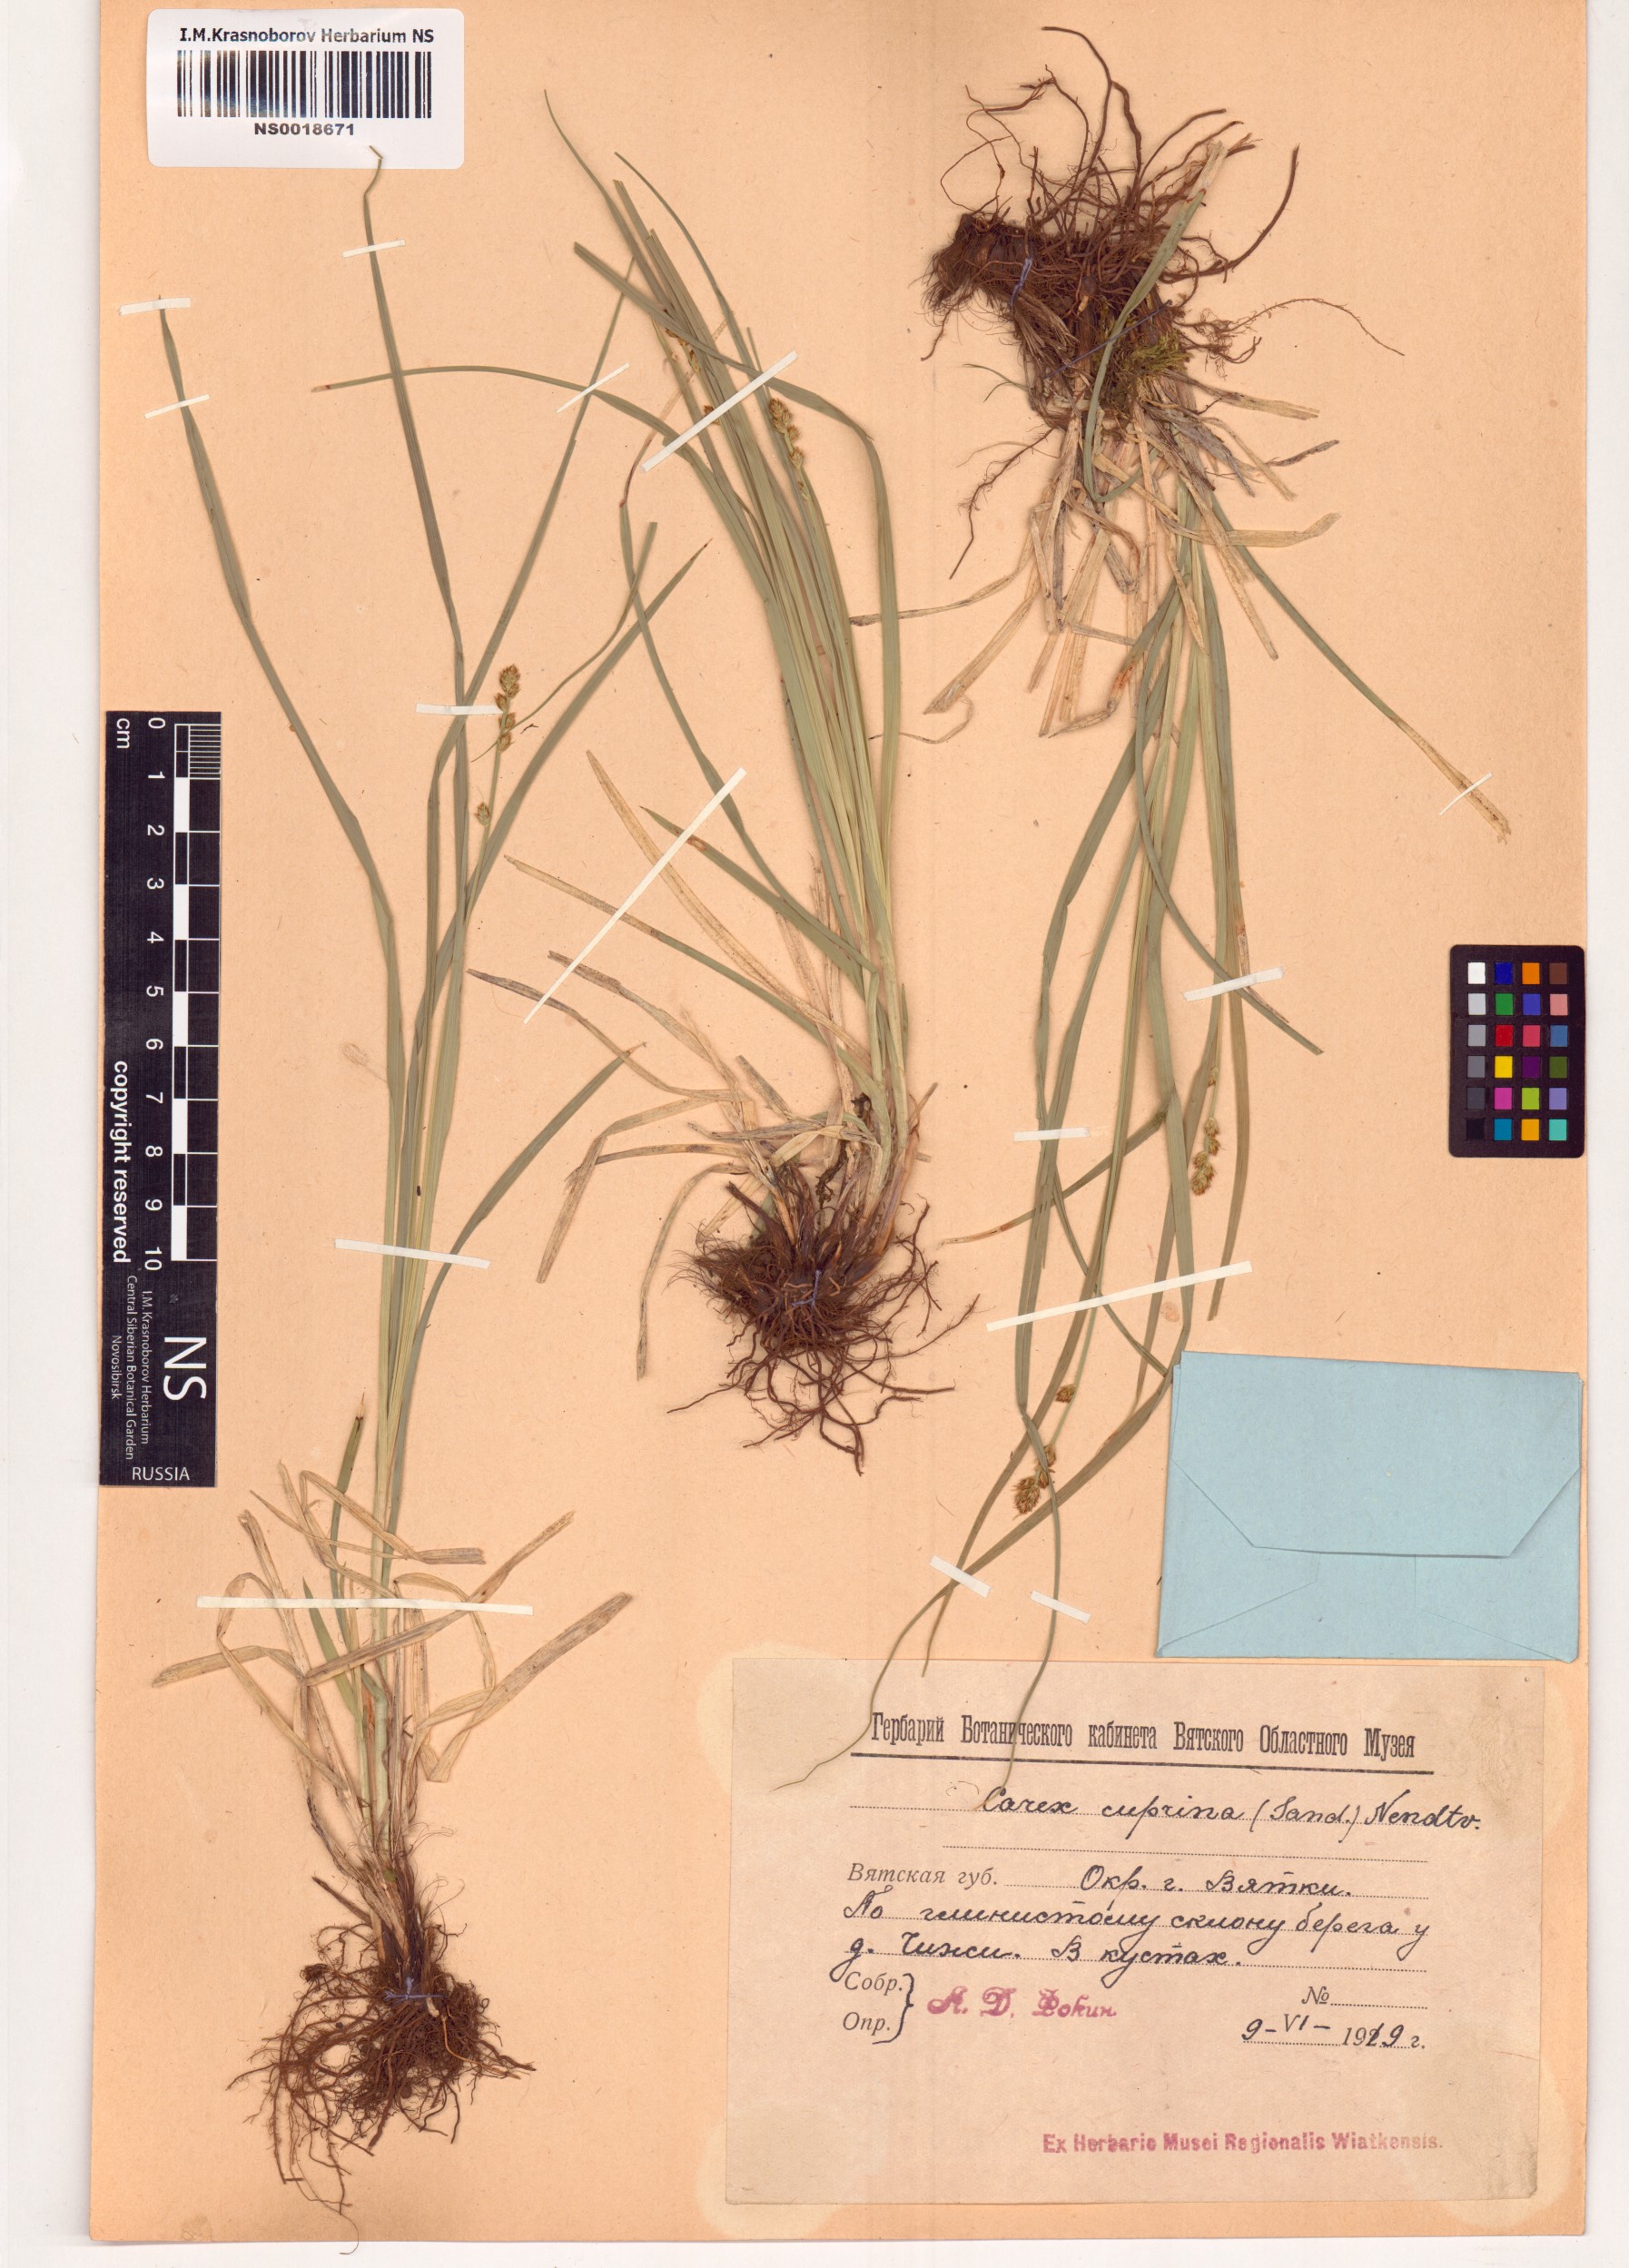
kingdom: Plantae
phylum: Tracheophyta
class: Liliopsida
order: Poales
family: Cyperaceae
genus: Carex
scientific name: Carex leersii
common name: Leers' sedge
